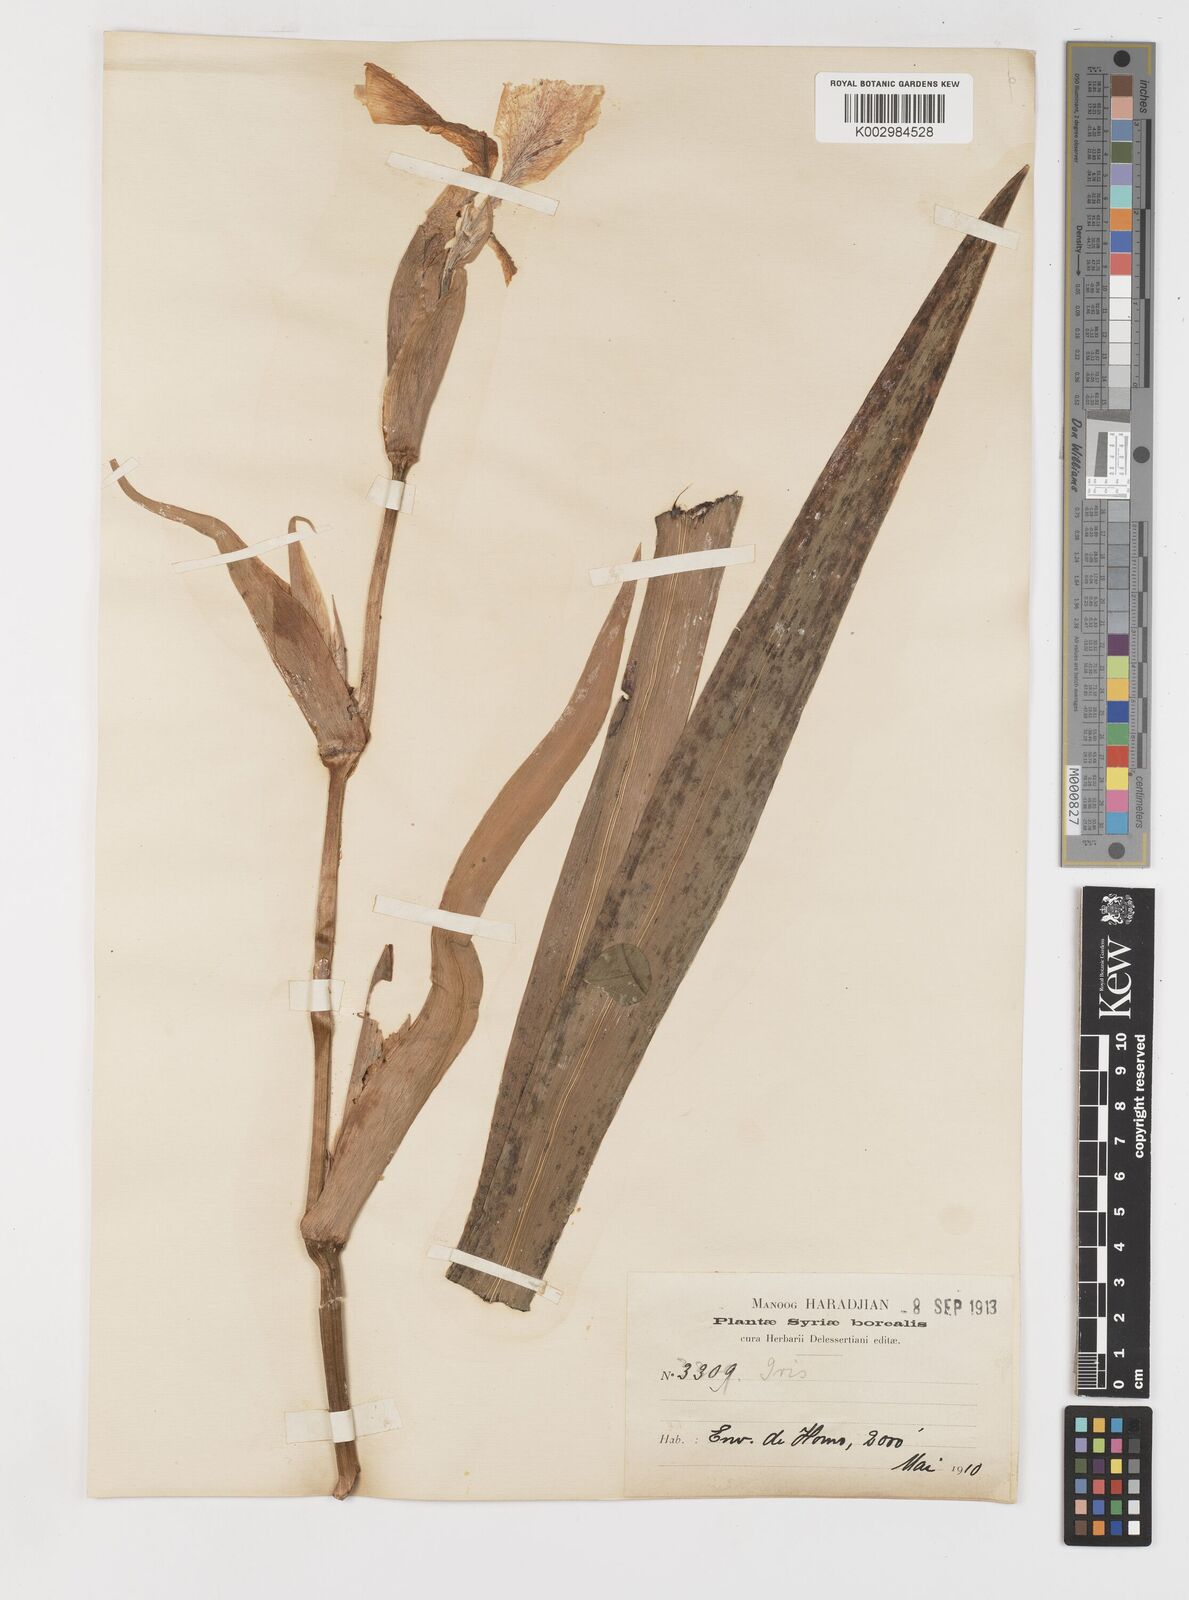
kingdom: Plantae
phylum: Tracheophyta
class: Liliopsida
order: Asparagales
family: Iridaceae
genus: Iris
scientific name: Iris pseudacorus
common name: Yellow flag
